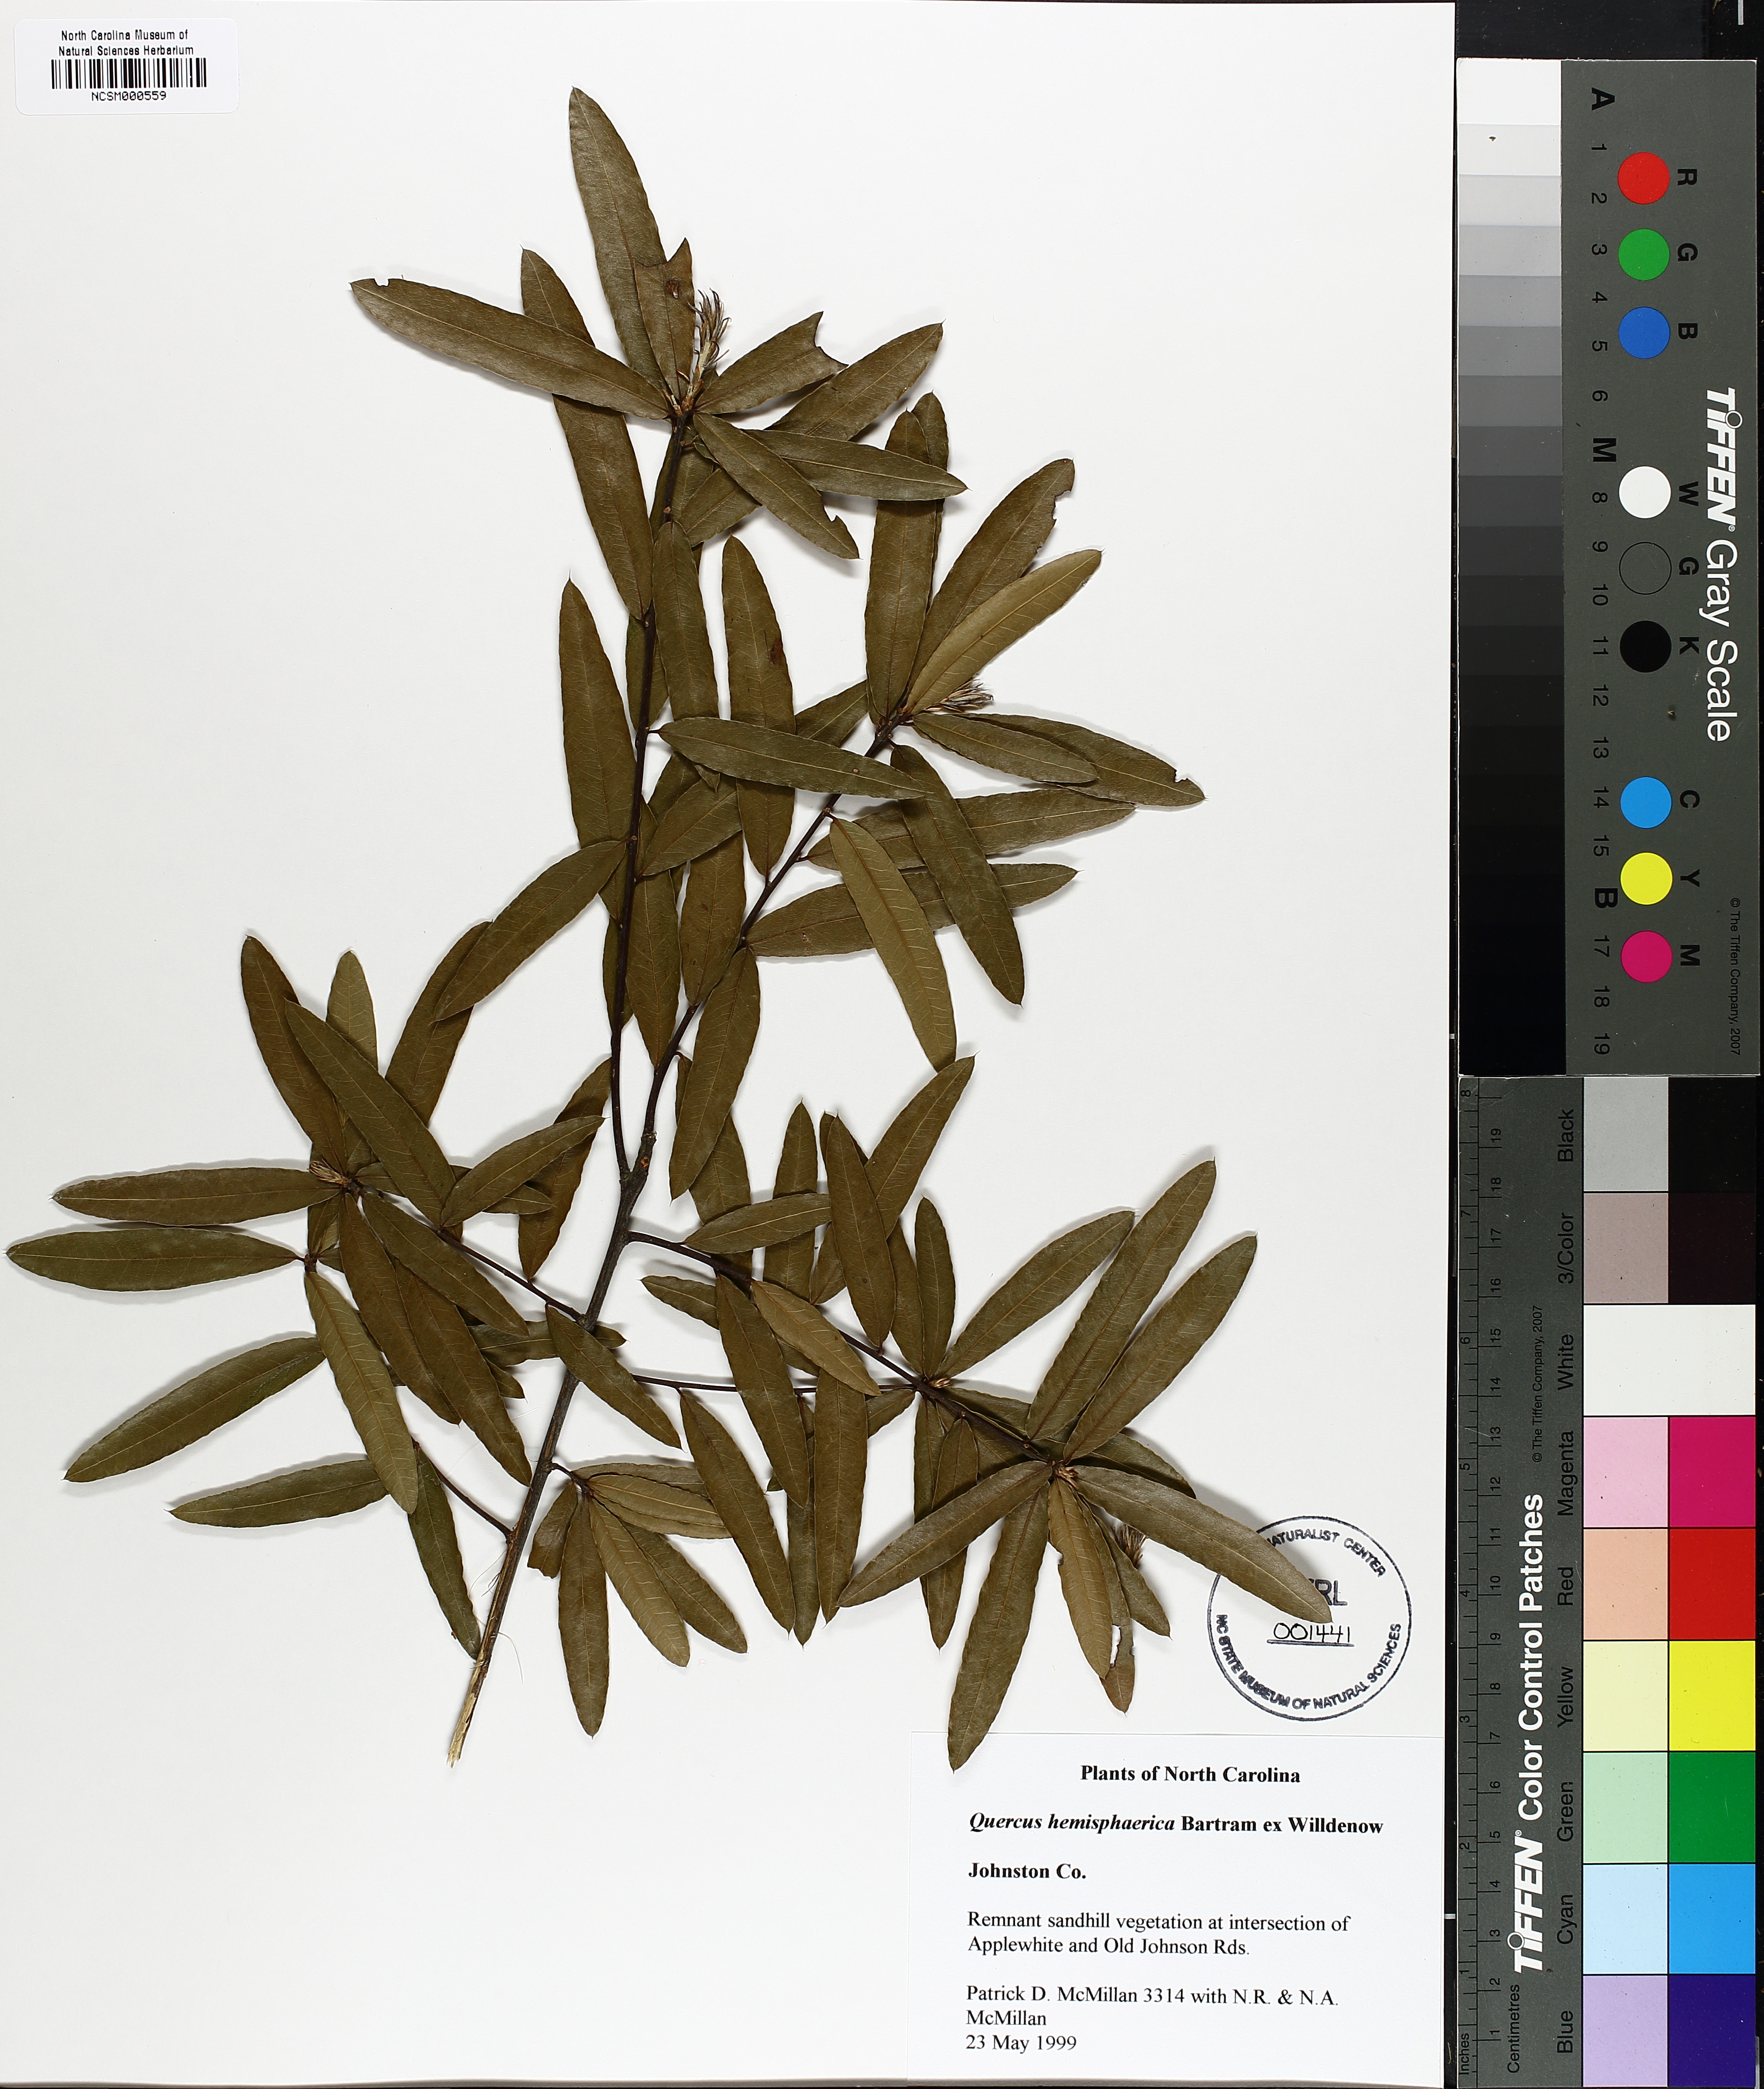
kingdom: Plantae
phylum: Tracheophyta
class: Magnoliopsida
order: Fagales
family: Fagaceae
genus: Quercus
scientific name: Quercus hemisphaerica
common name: Darlington oak
